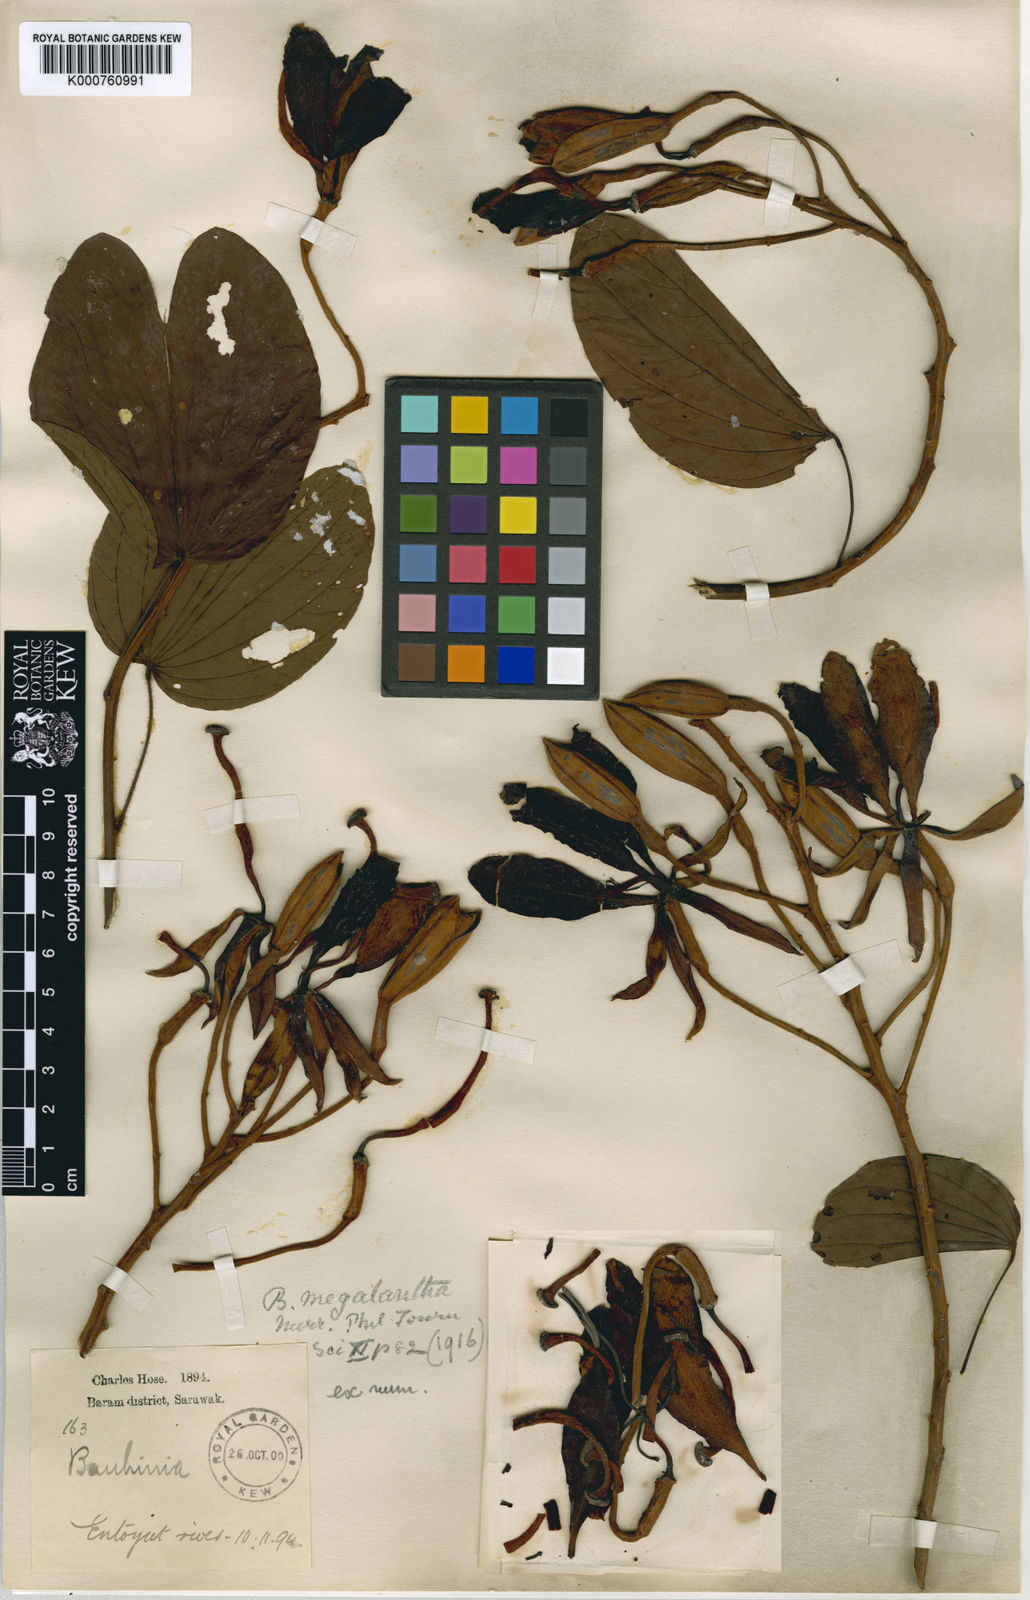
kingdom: Plantae
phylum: Tracheophyta
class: Magnoliopsida
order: Fabales
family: Fabaceae
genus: Phanera
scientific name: Phanera excelsa
